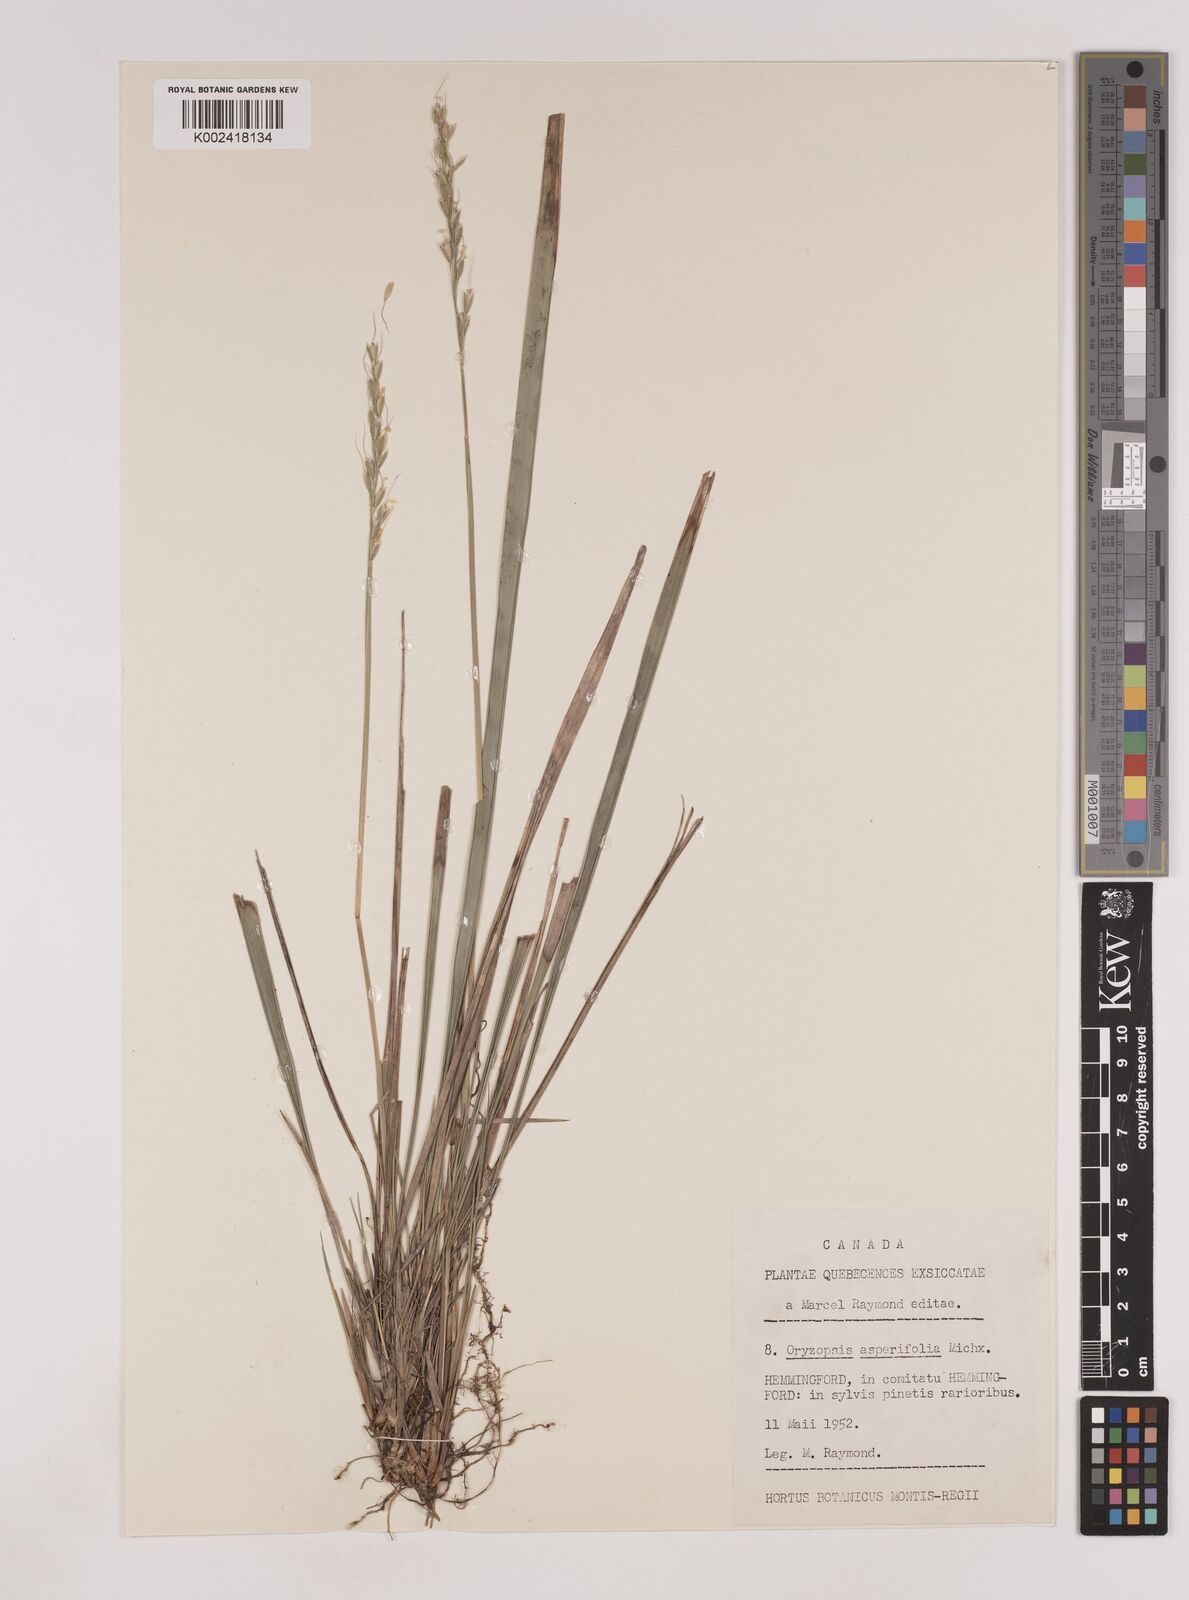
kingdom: Plantae
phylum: Tracheophyta
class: Liliopsida
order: Poales
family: Poaceae
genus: Oryzopsis
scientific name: Oryzopsis asperifolia
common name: Rough-leaved mountain rice
